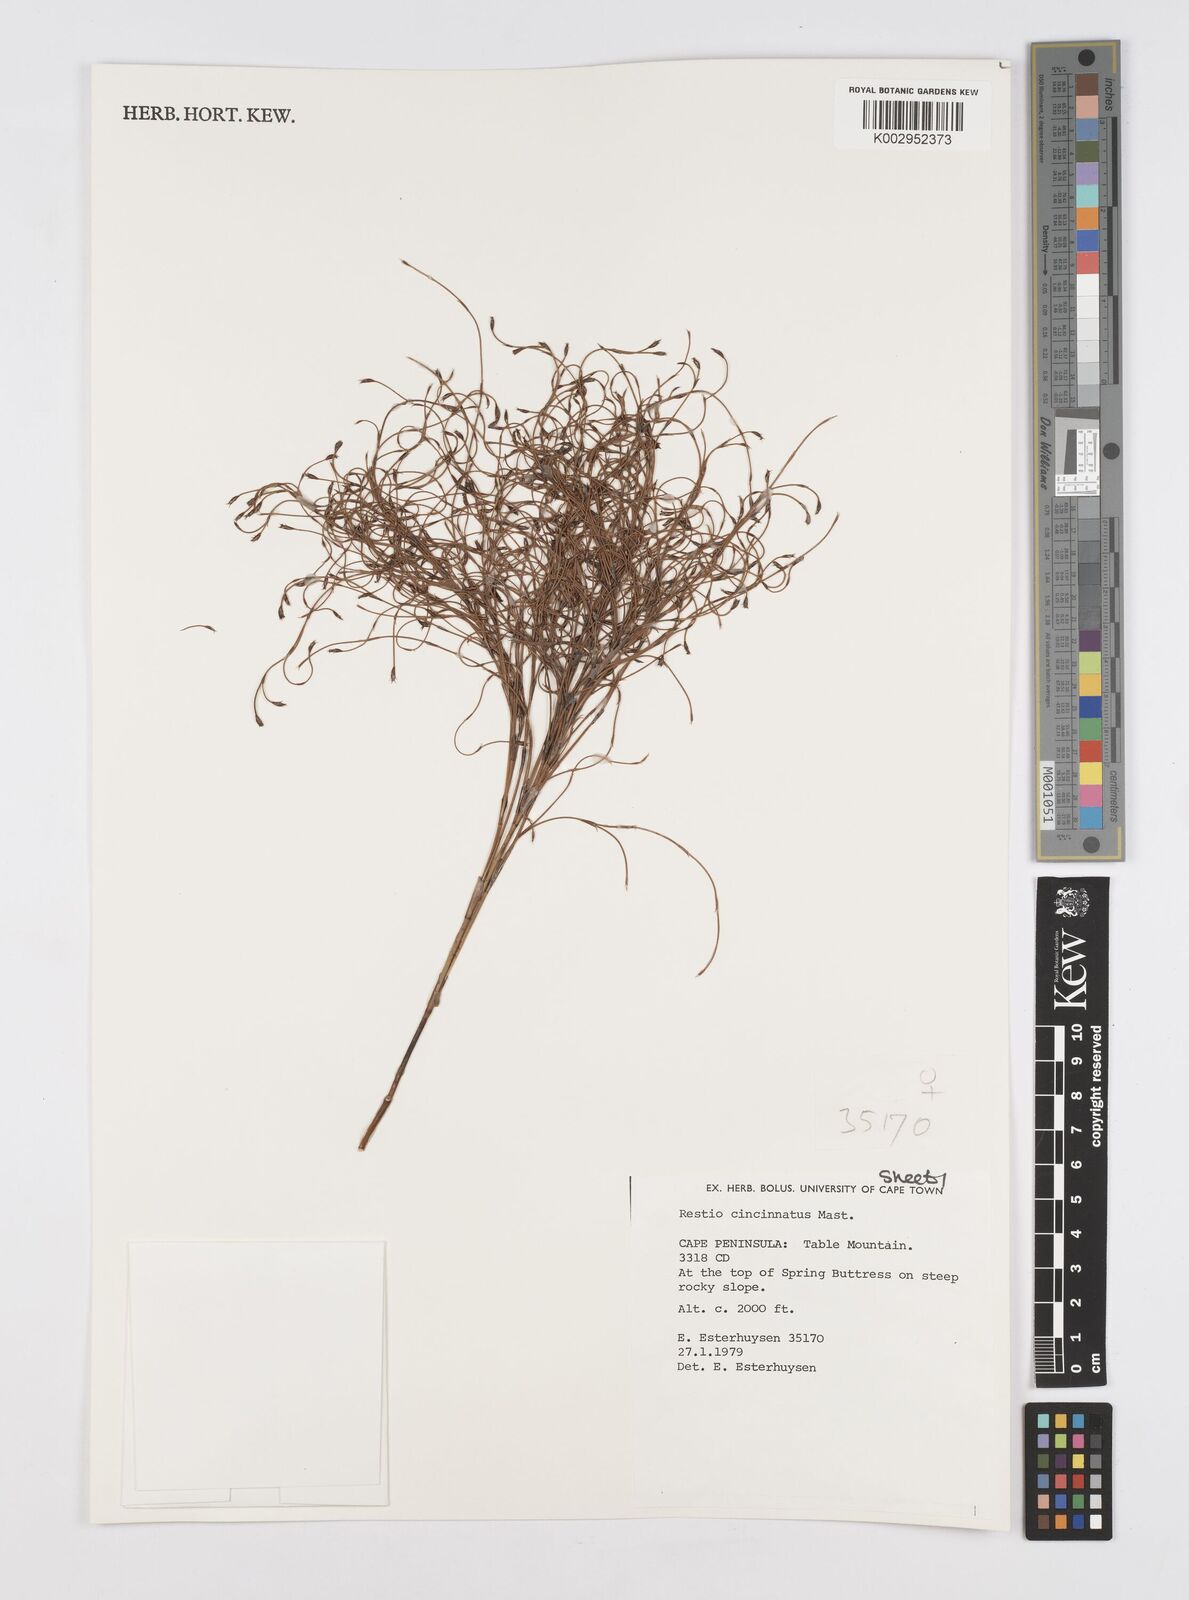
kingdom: Plantae
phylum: Tracheophyta
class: Liliopsida
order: Poales
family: Restionaceae
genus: Restio
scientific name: Restio cincinnatus
